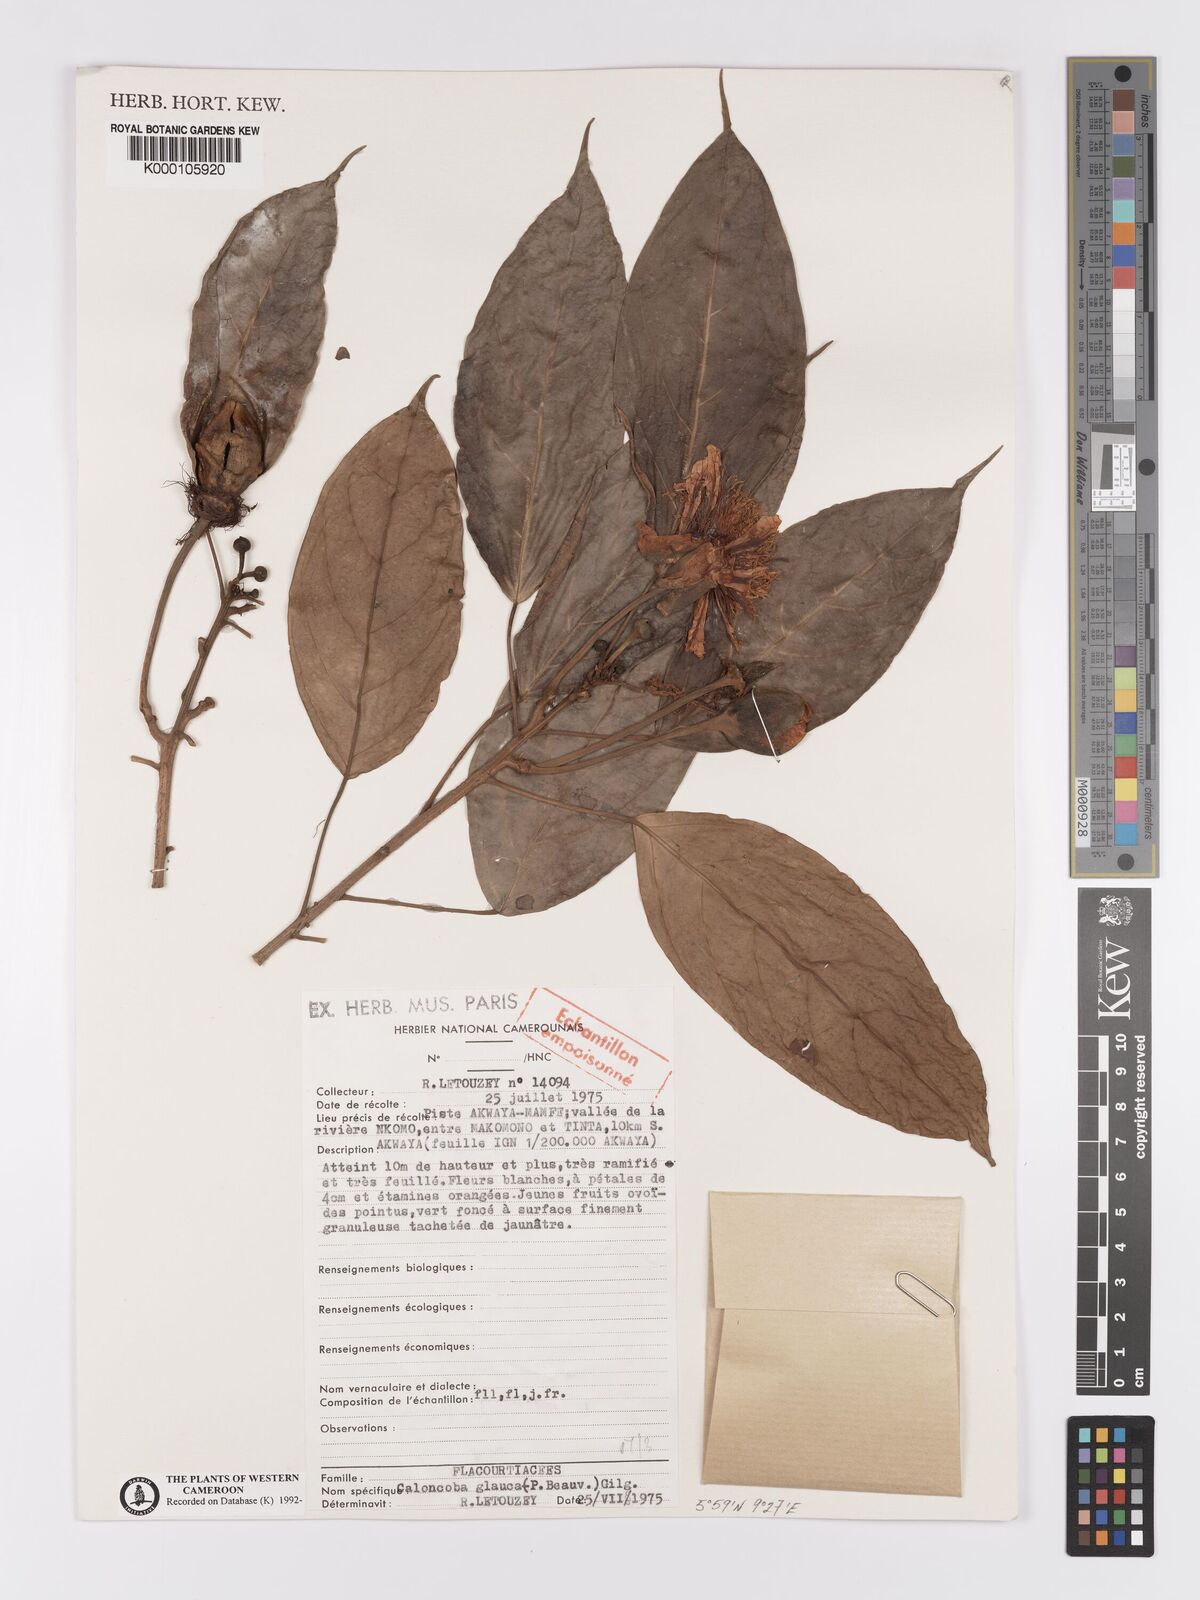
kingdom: Plantae
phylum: Tracheophyta
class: Magnoliopsida
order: Malpighiales
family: Achariaceae
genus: Caloncoba
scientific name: Caloncoba glauca
